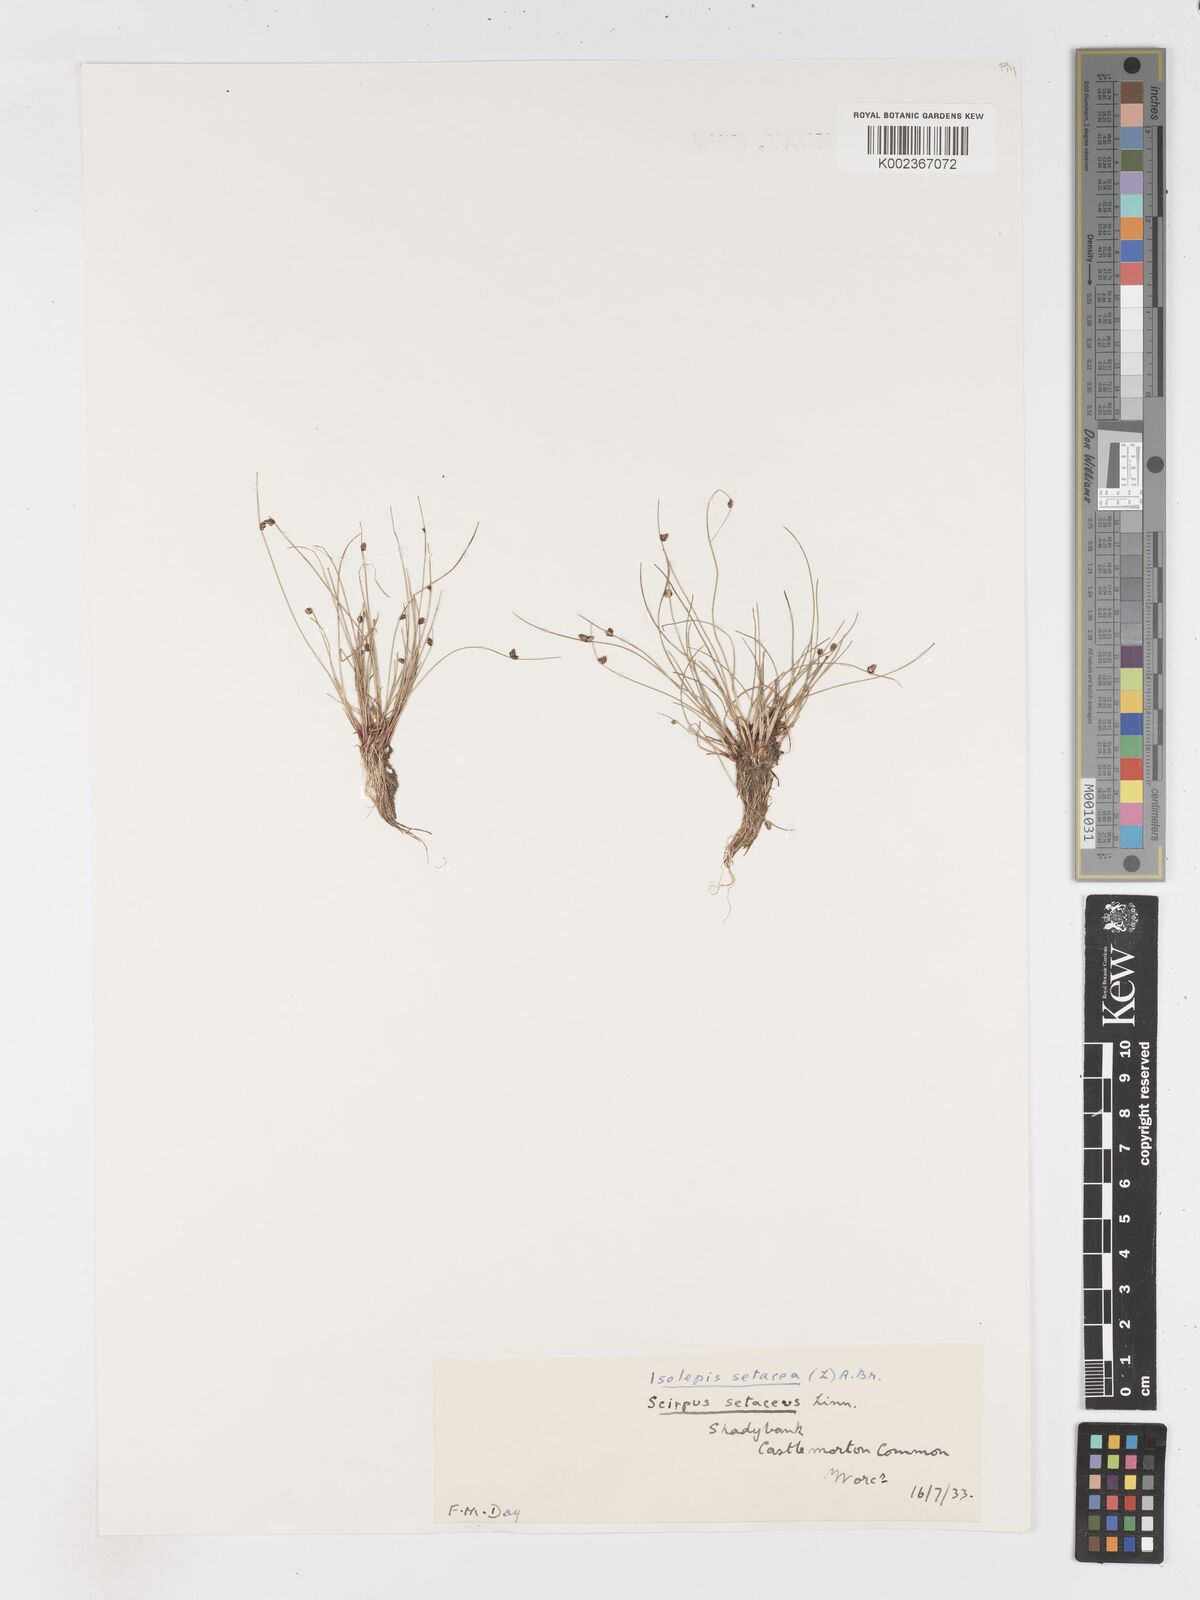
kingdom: Plantae
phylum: Tracheophyta
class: Liliopsida
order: Poales
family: Cyperaceae
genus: Isolepis
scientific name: Isolepis setacea
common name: Bristle club-rush
